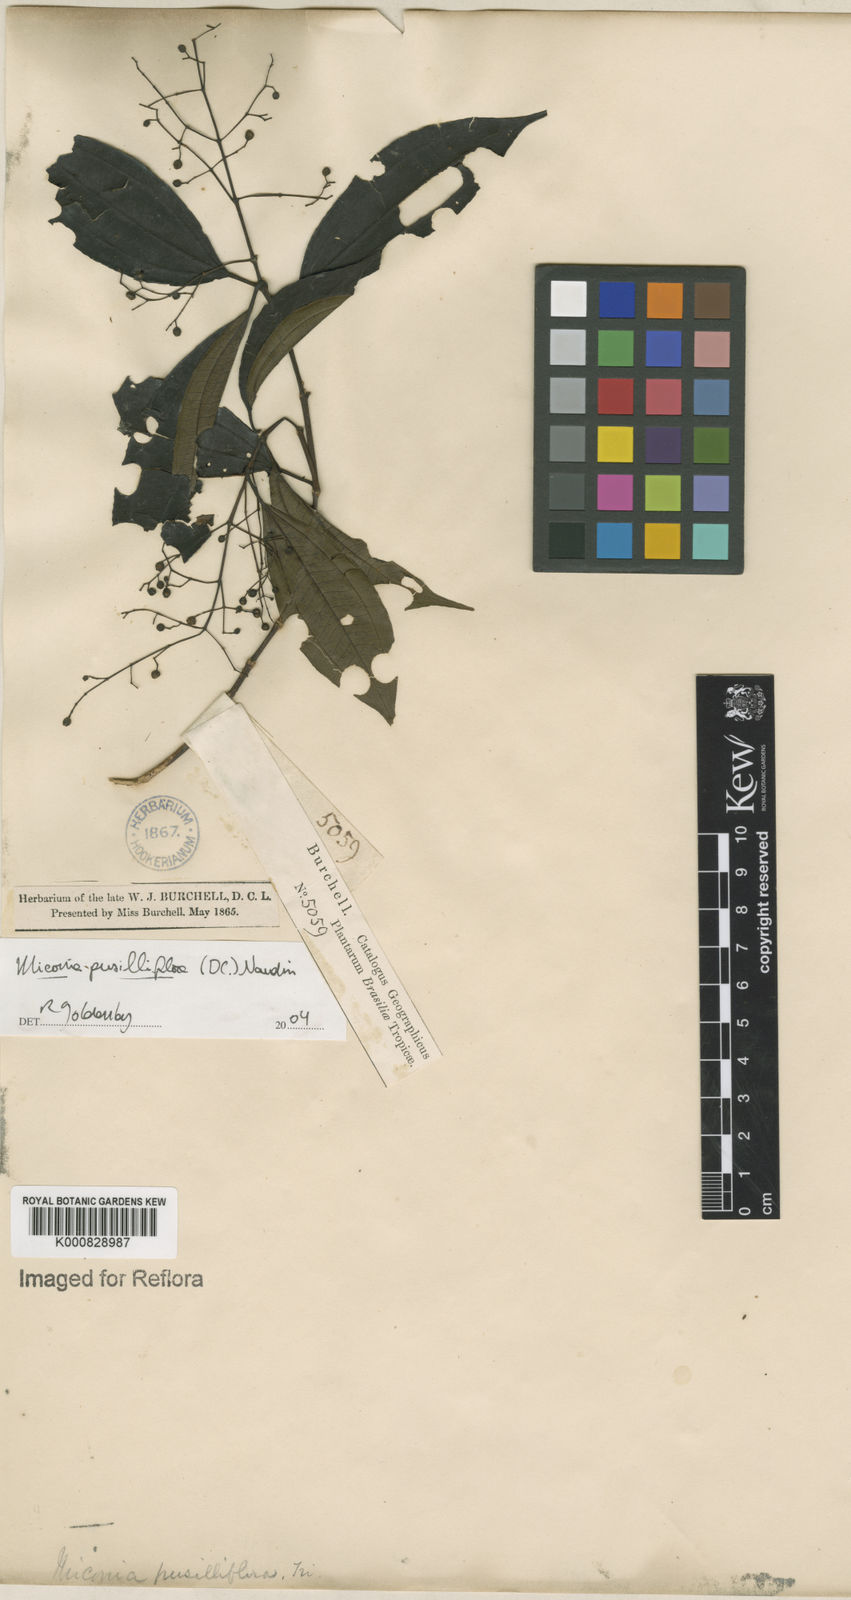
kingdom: Plantae
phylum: Tracheophyta
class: Magnoliopsida
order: Myrtales
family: Melastomataceae
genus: Miconia
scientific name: Miconia pusilliflora
